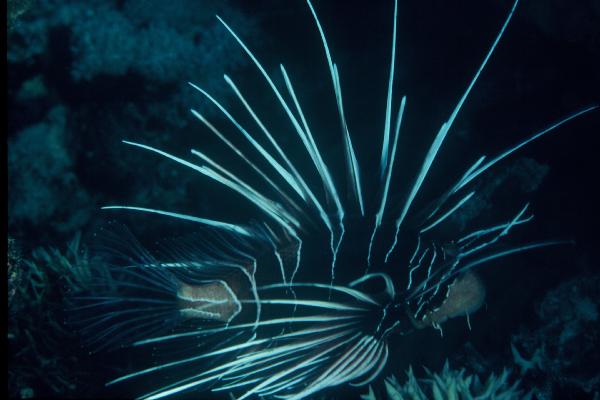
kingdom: Animalia
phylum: Chordata
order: Scorpaeniformes
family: Scorpaenidae
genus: Pterois
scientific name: Pterois radiata
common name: Radial firefish
